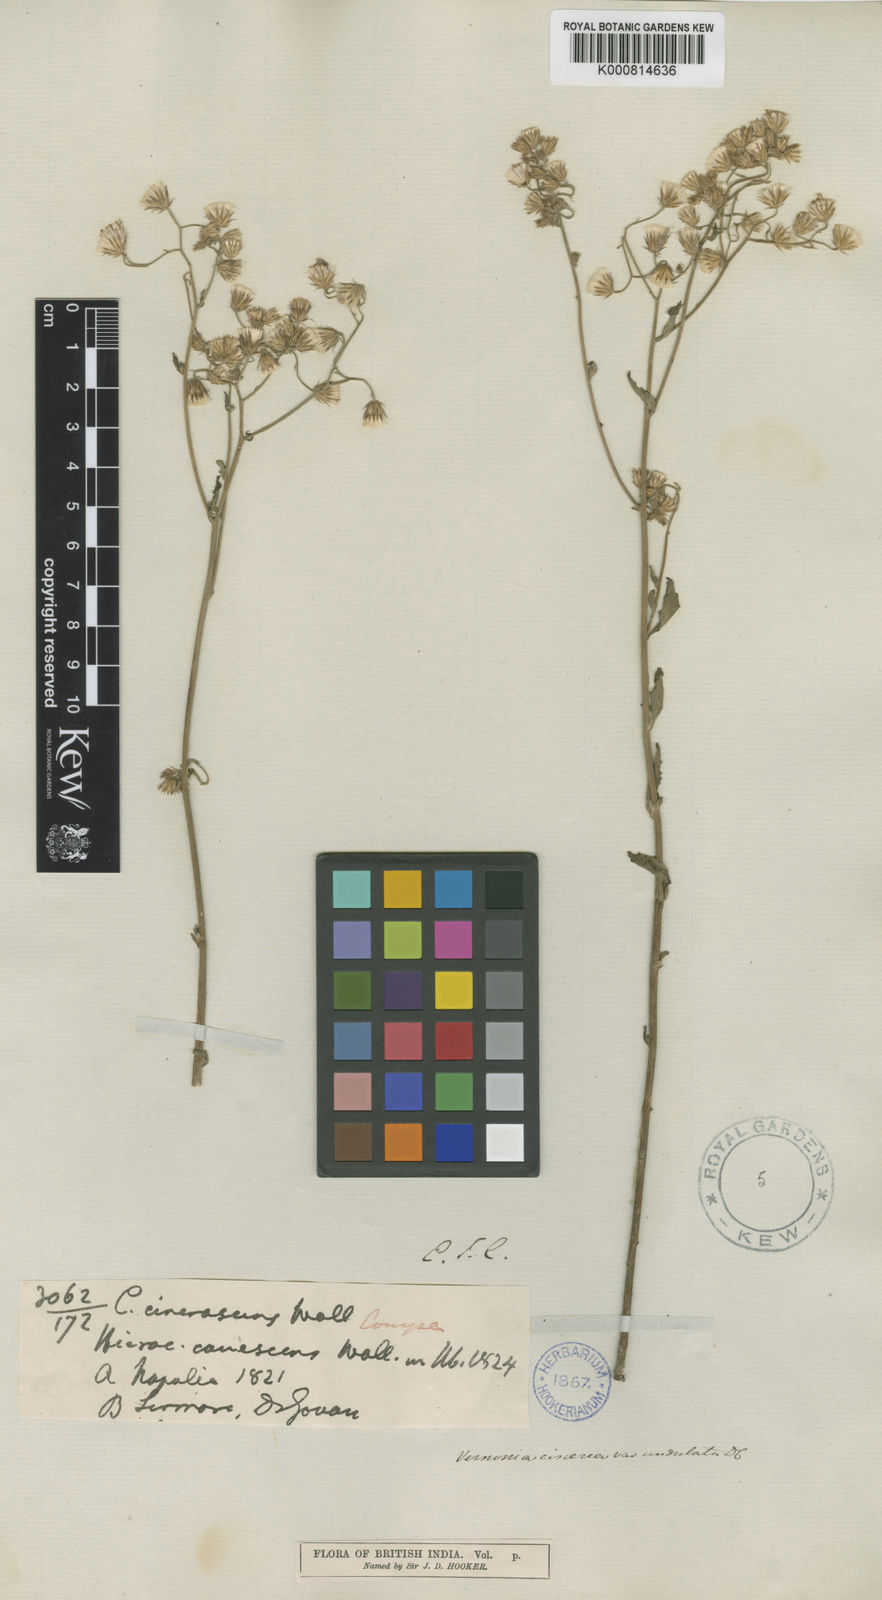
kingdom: Plantae
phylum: Tracheophyta
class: Magnoliopsida
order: Asterales
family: Asteraceae
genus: Cyanthillium
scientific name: Cyanthillium cinereum
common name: Little ironweed
